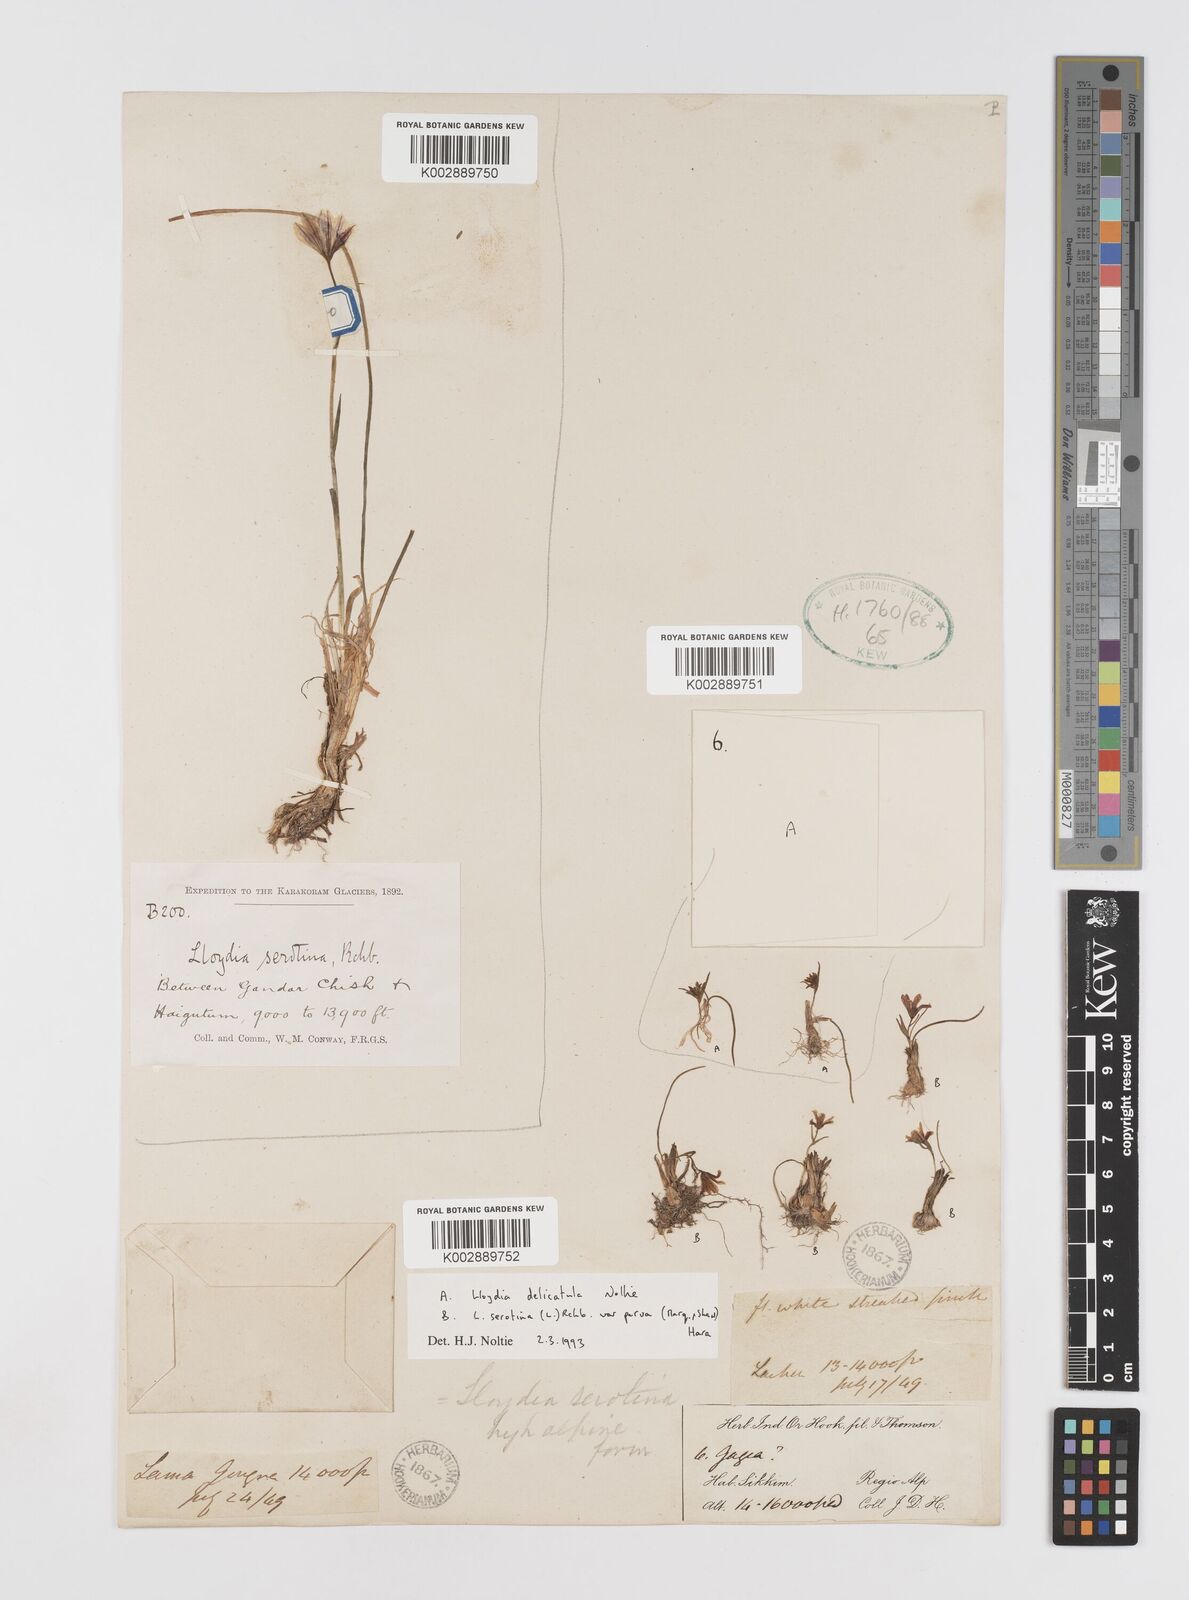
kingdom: Plantae
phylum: Tracheophyta
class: Liliopsida
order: Liliales
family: Liliaceae
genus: Gagea
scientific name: Gagea delicatula
